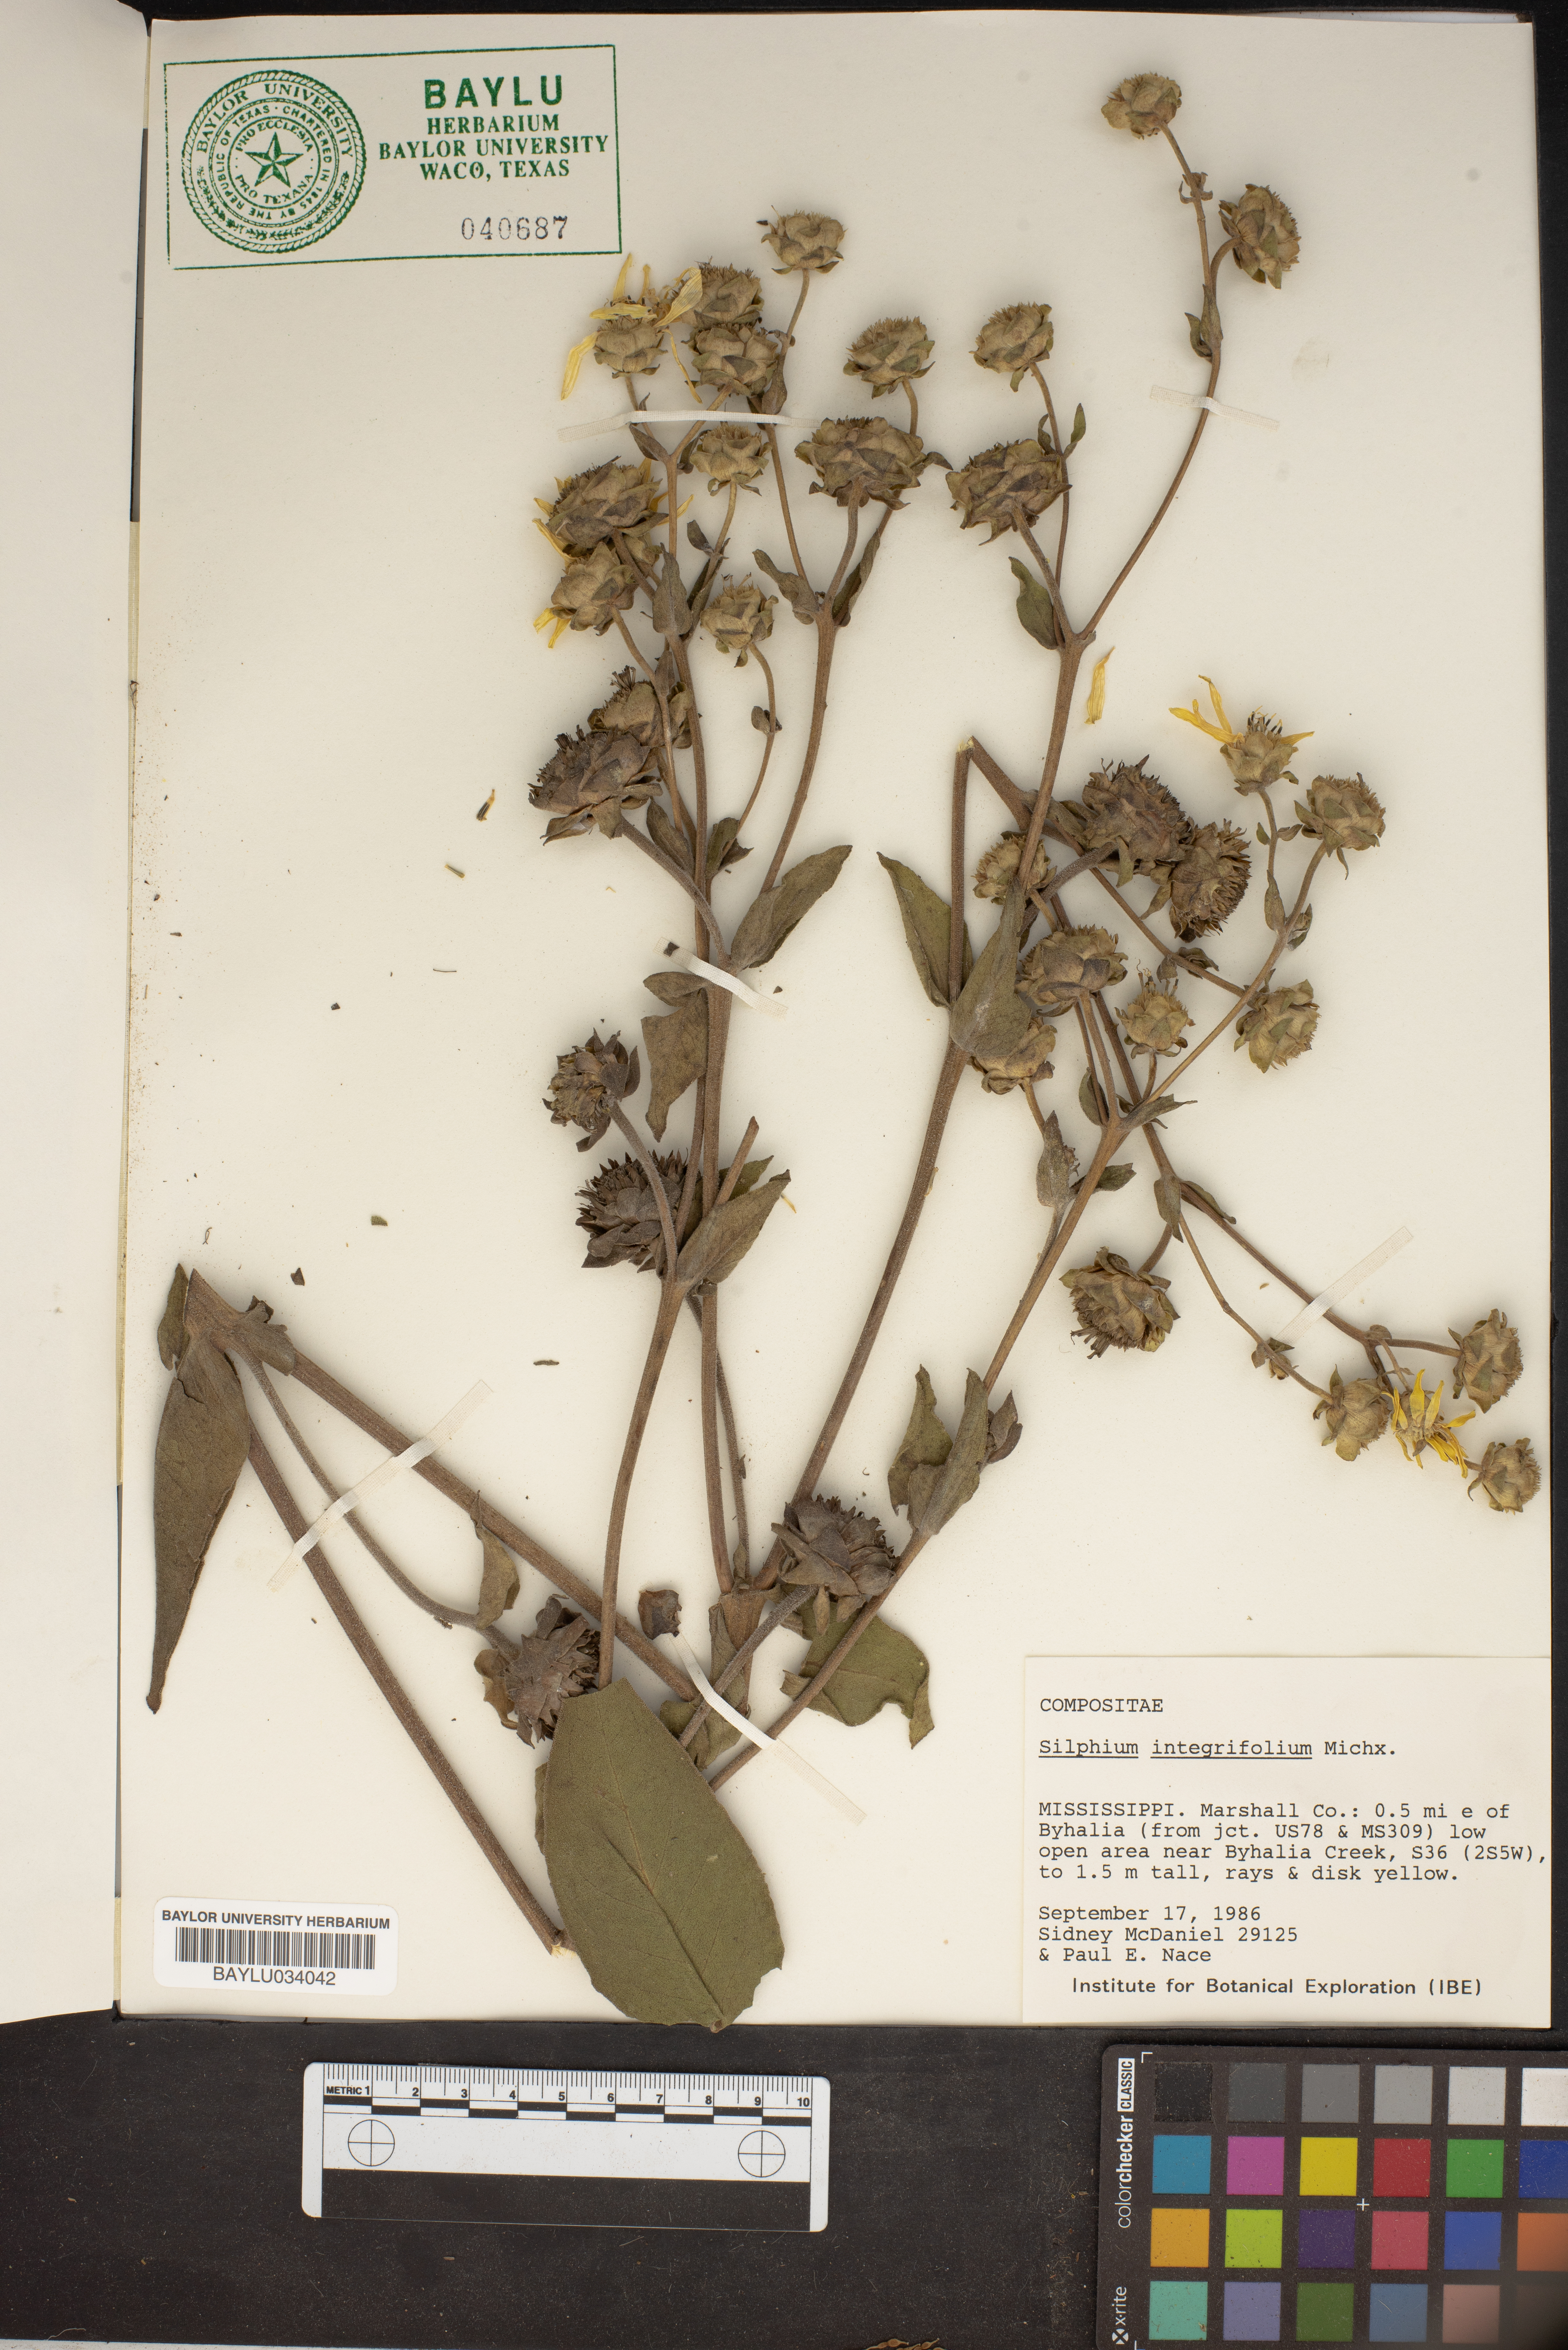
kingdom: Plantae
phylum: Tracheophyta
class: Magnoliopsida
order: Asterales
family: Asteraceae
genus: Silphium
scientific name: Silphium integrifolium
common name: Whole-leaf rosinweed
